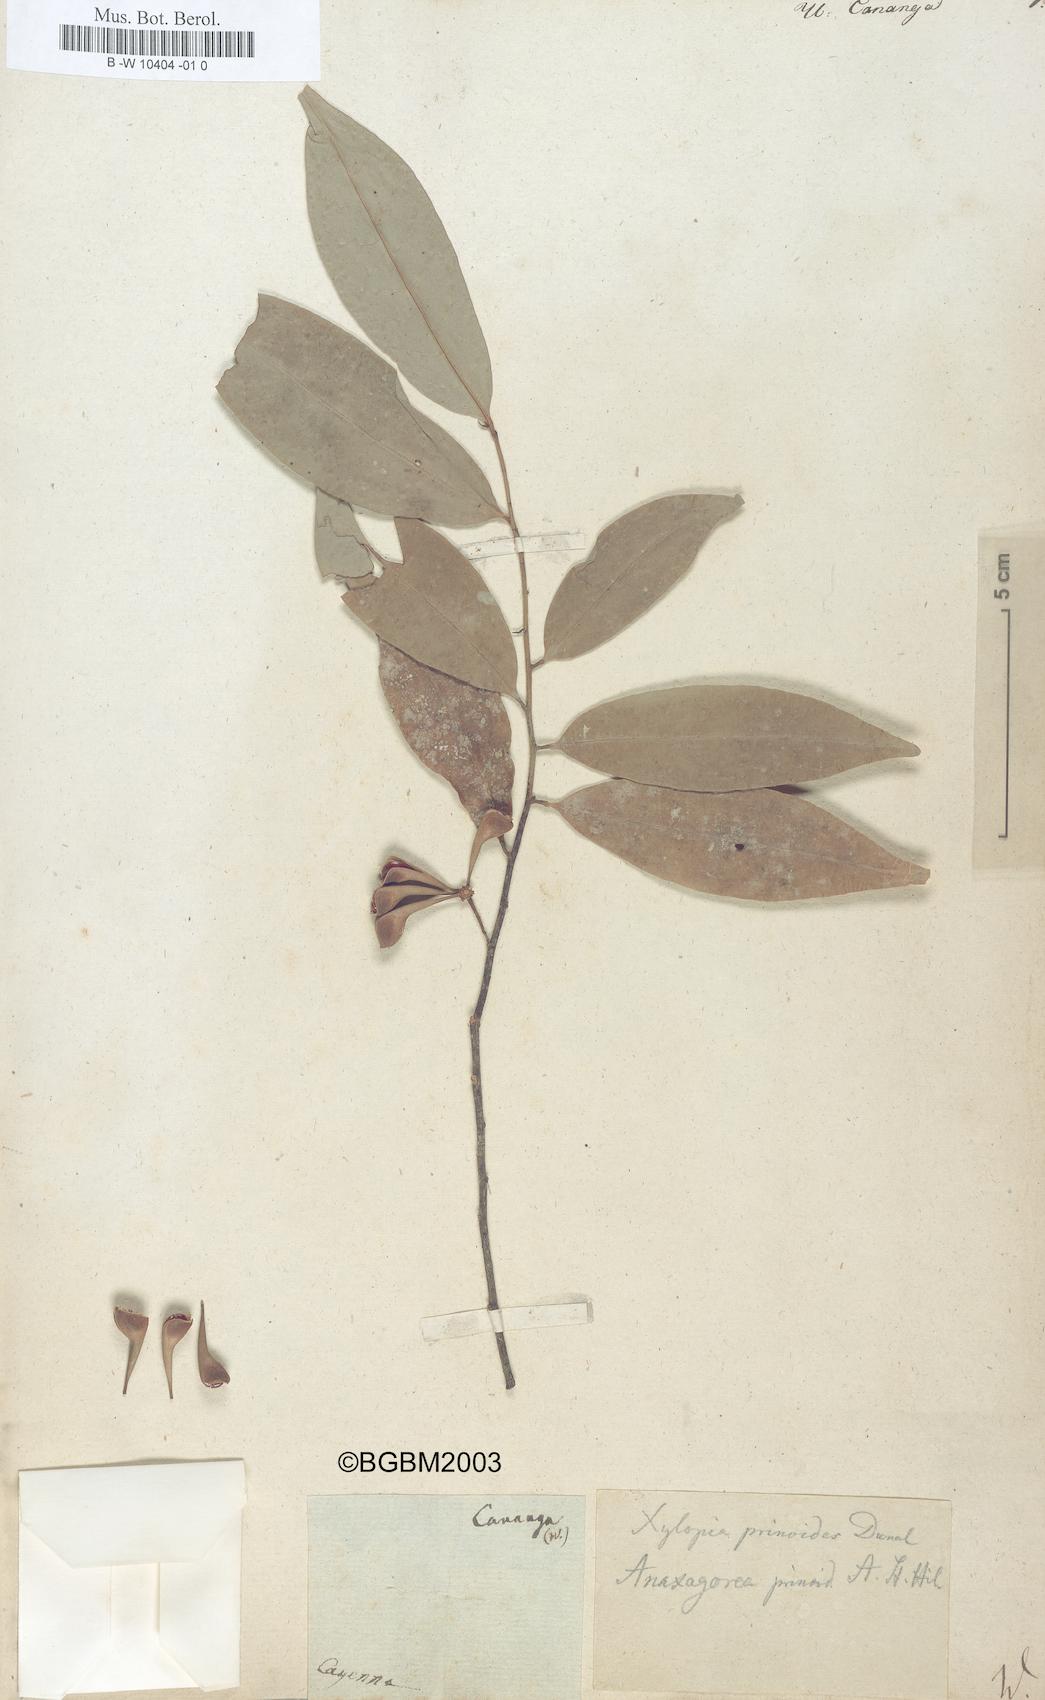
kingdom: Plantae
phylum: Tracheophyta
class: Magnoliopsida
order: Magnoliales
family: Annonaceae
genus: Cananga
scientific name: Cananga odorata
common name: Cananga tree
